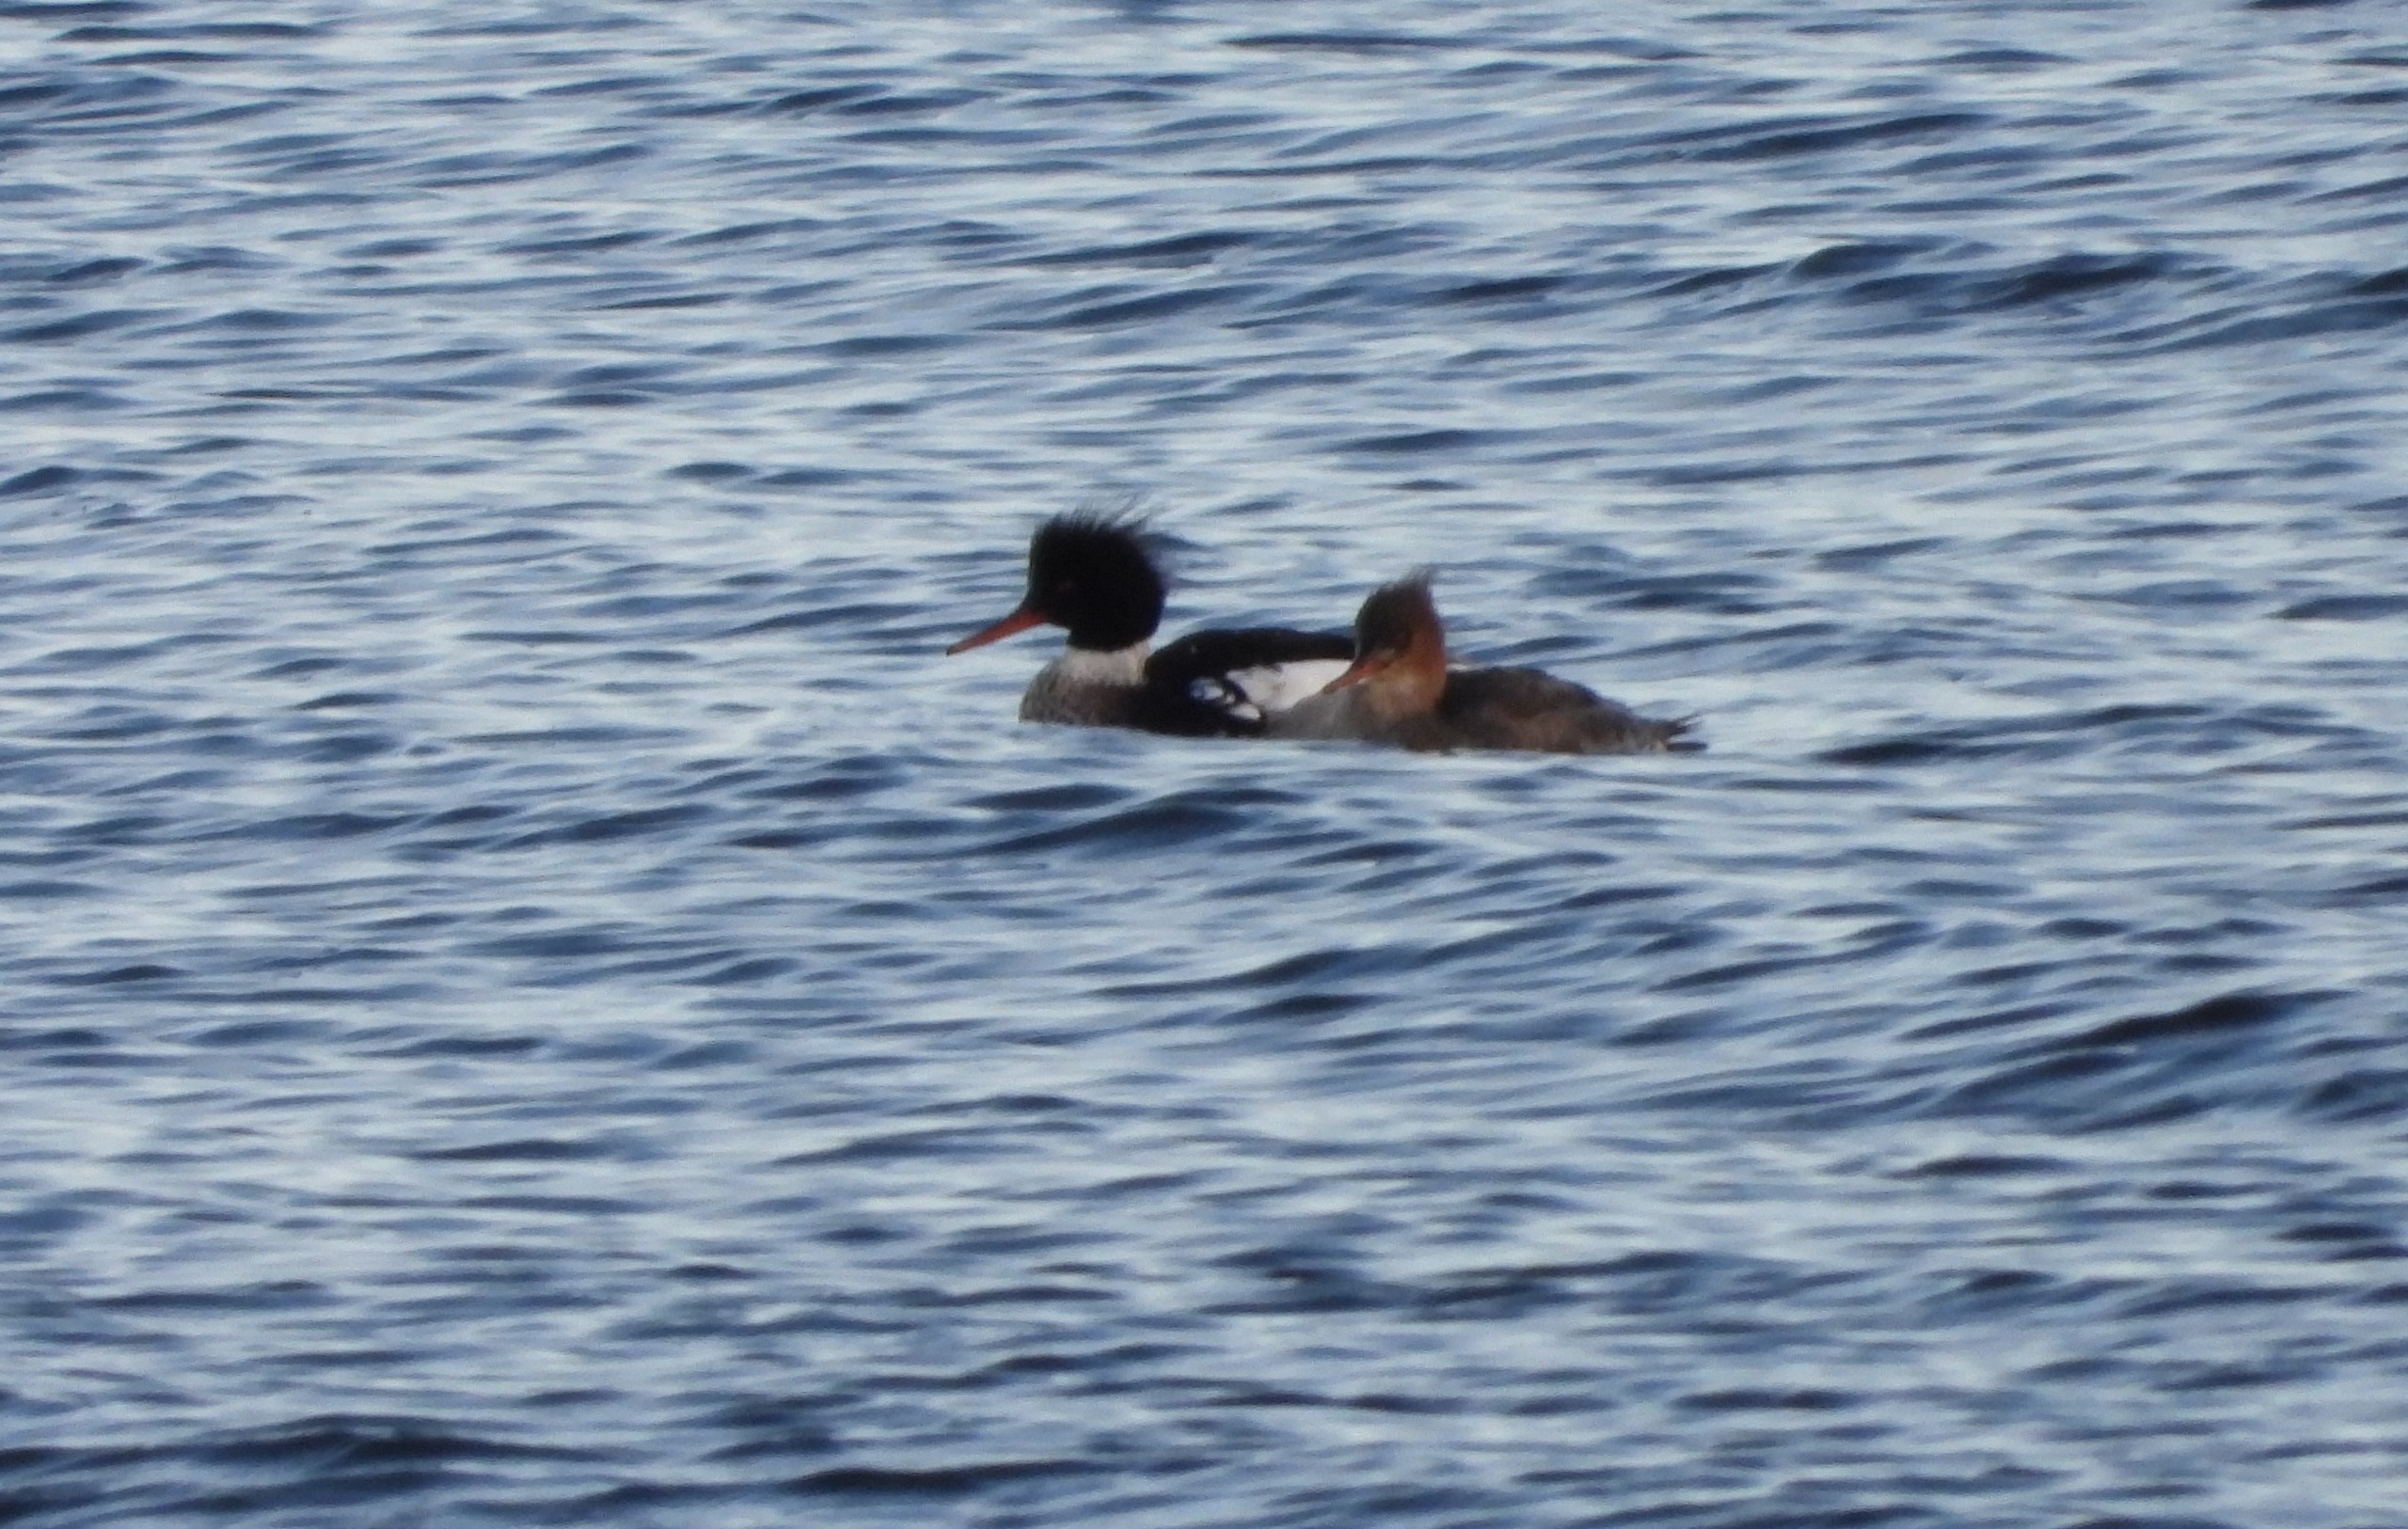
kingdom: Animalia
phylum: Chordata
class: Aves
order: Anseriformes
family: Anatidae
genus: Mergus
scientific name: Mergus serrator
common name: Toppet skallesluger
